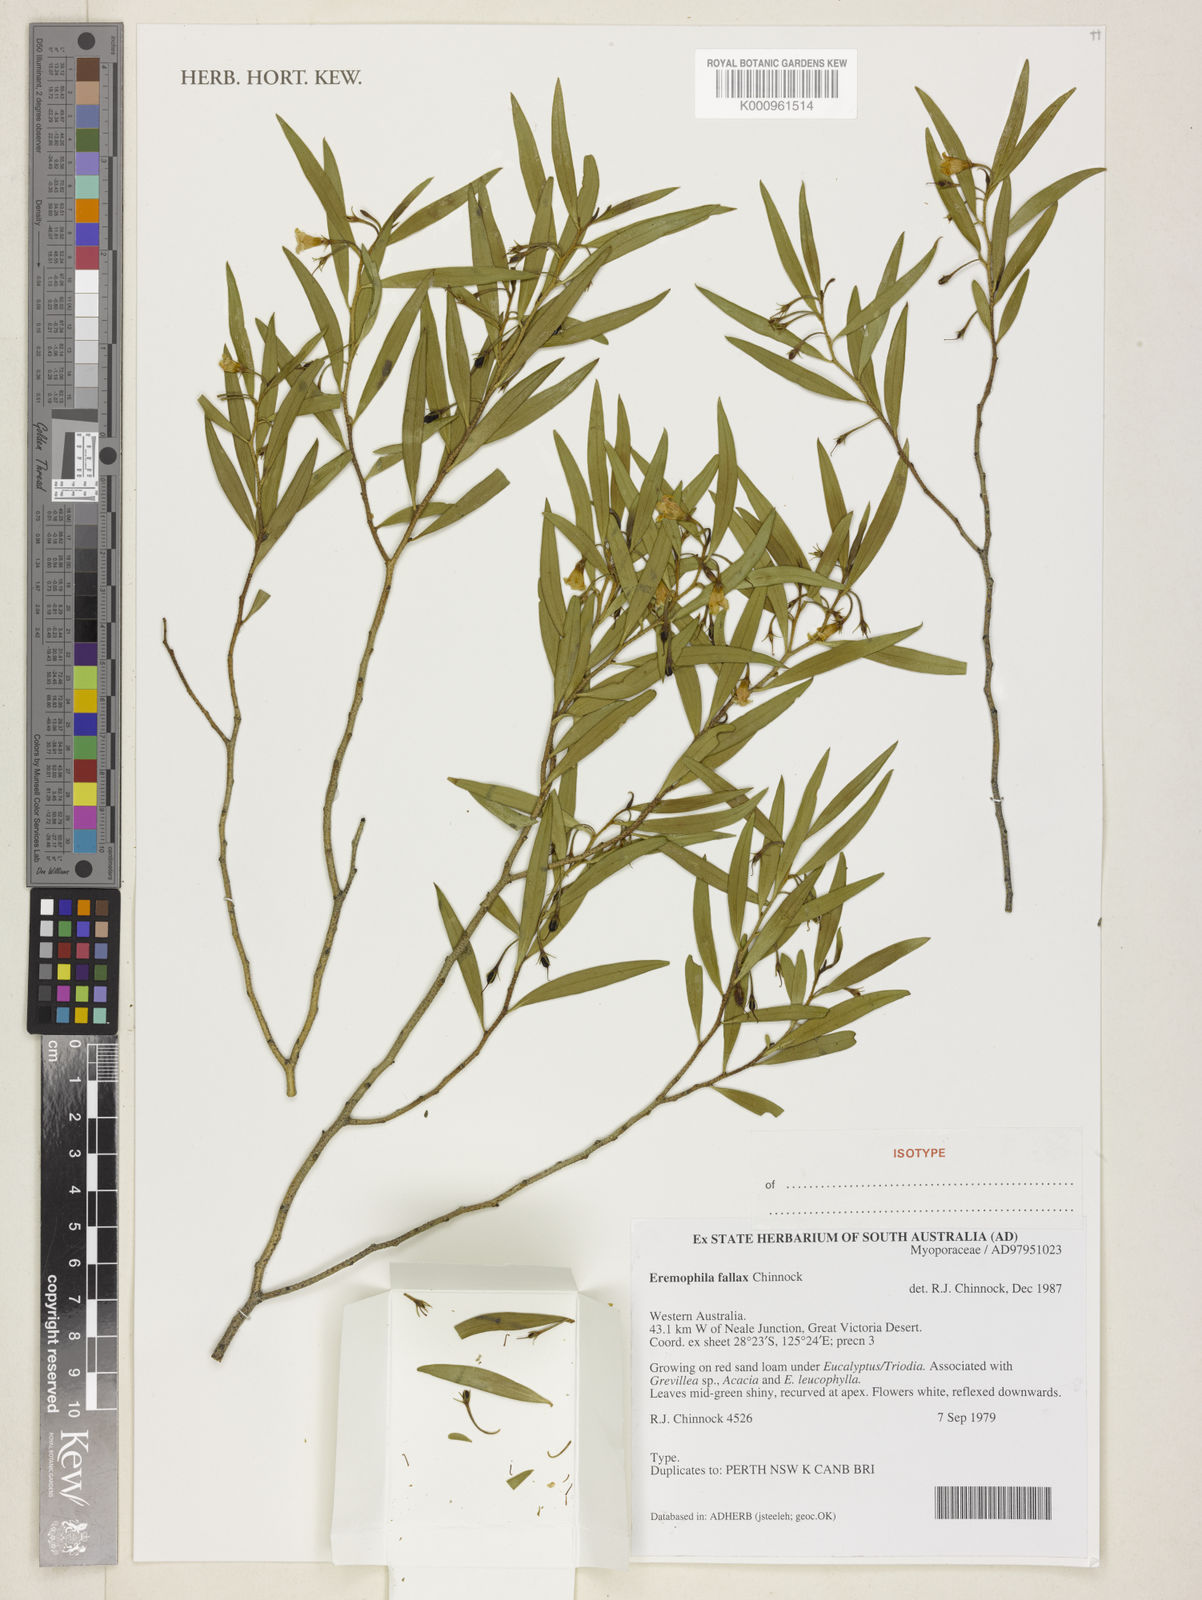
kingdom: Plantae
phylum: Tracheophyta
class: Magnoliopsida
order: Lamiales
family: Scrophulariaceae
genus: Eremophila
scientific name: Eremophila fallax
